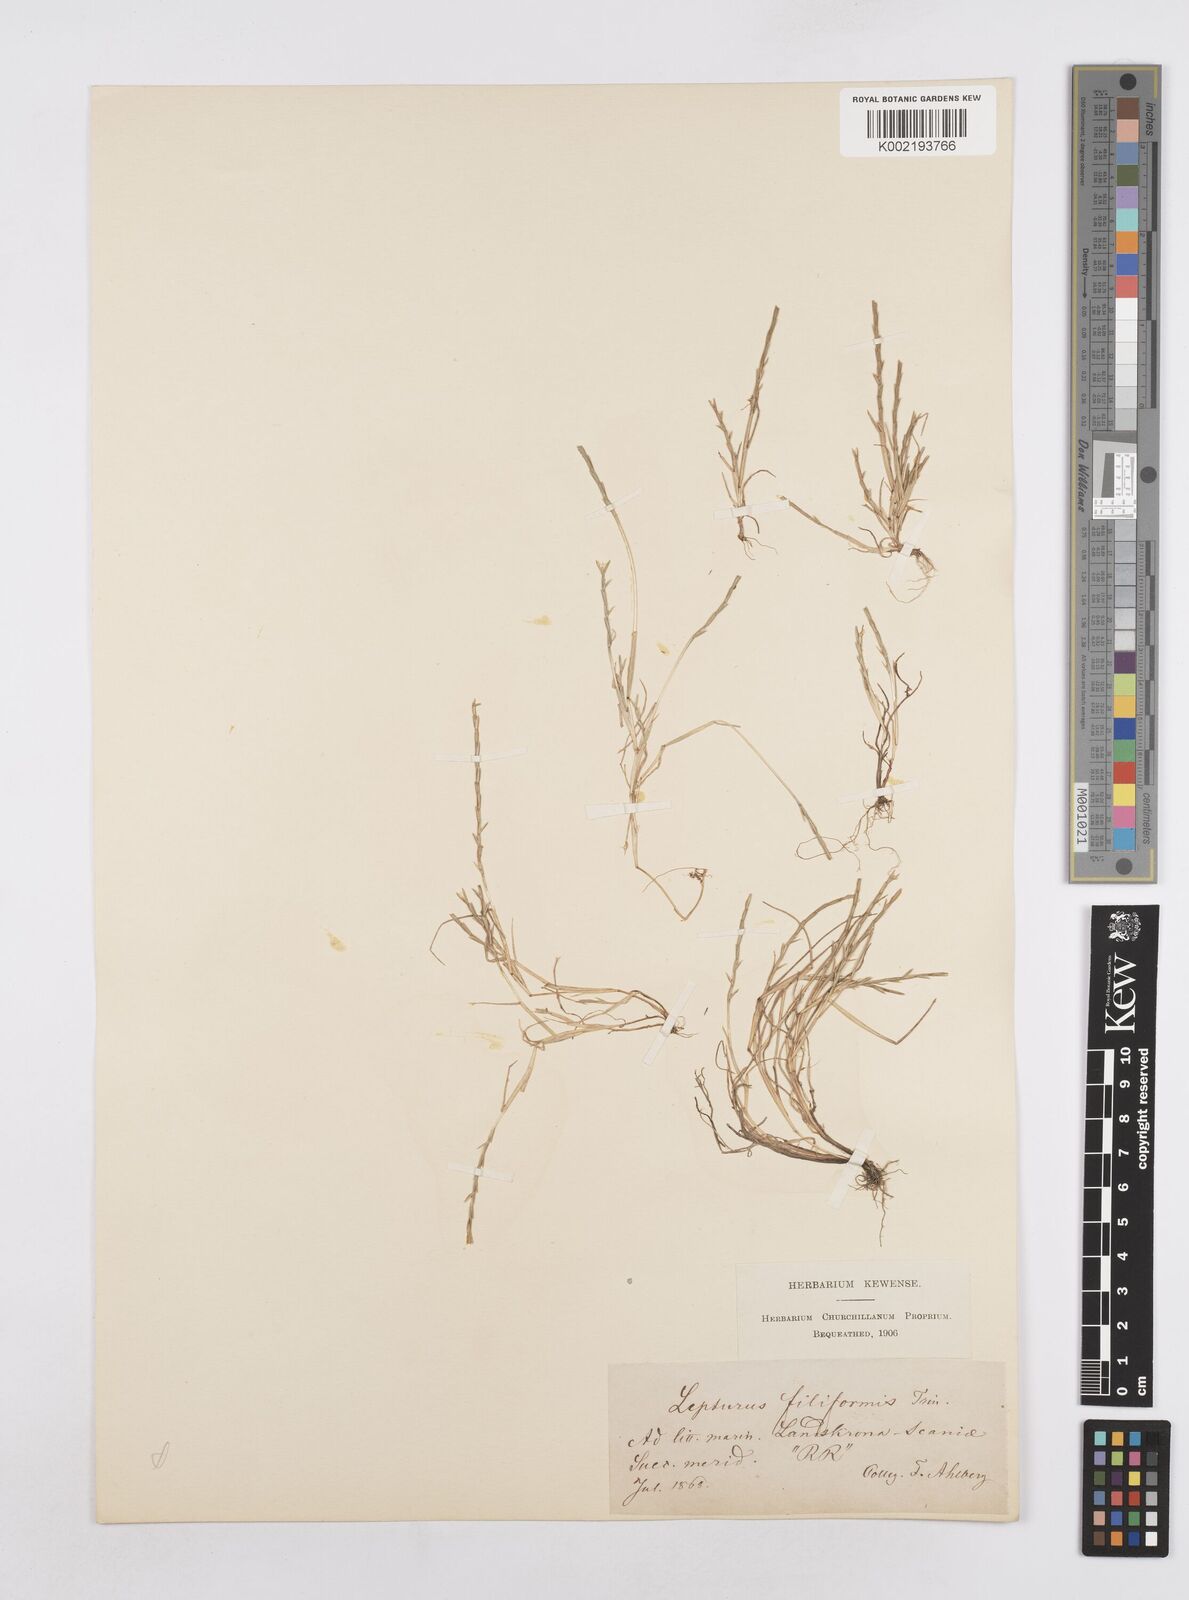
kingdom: Plantae
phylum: Tracheophyta
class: Liliopsida
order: Poales
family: Poaceae
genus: Parapholis
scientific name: Parapholis
